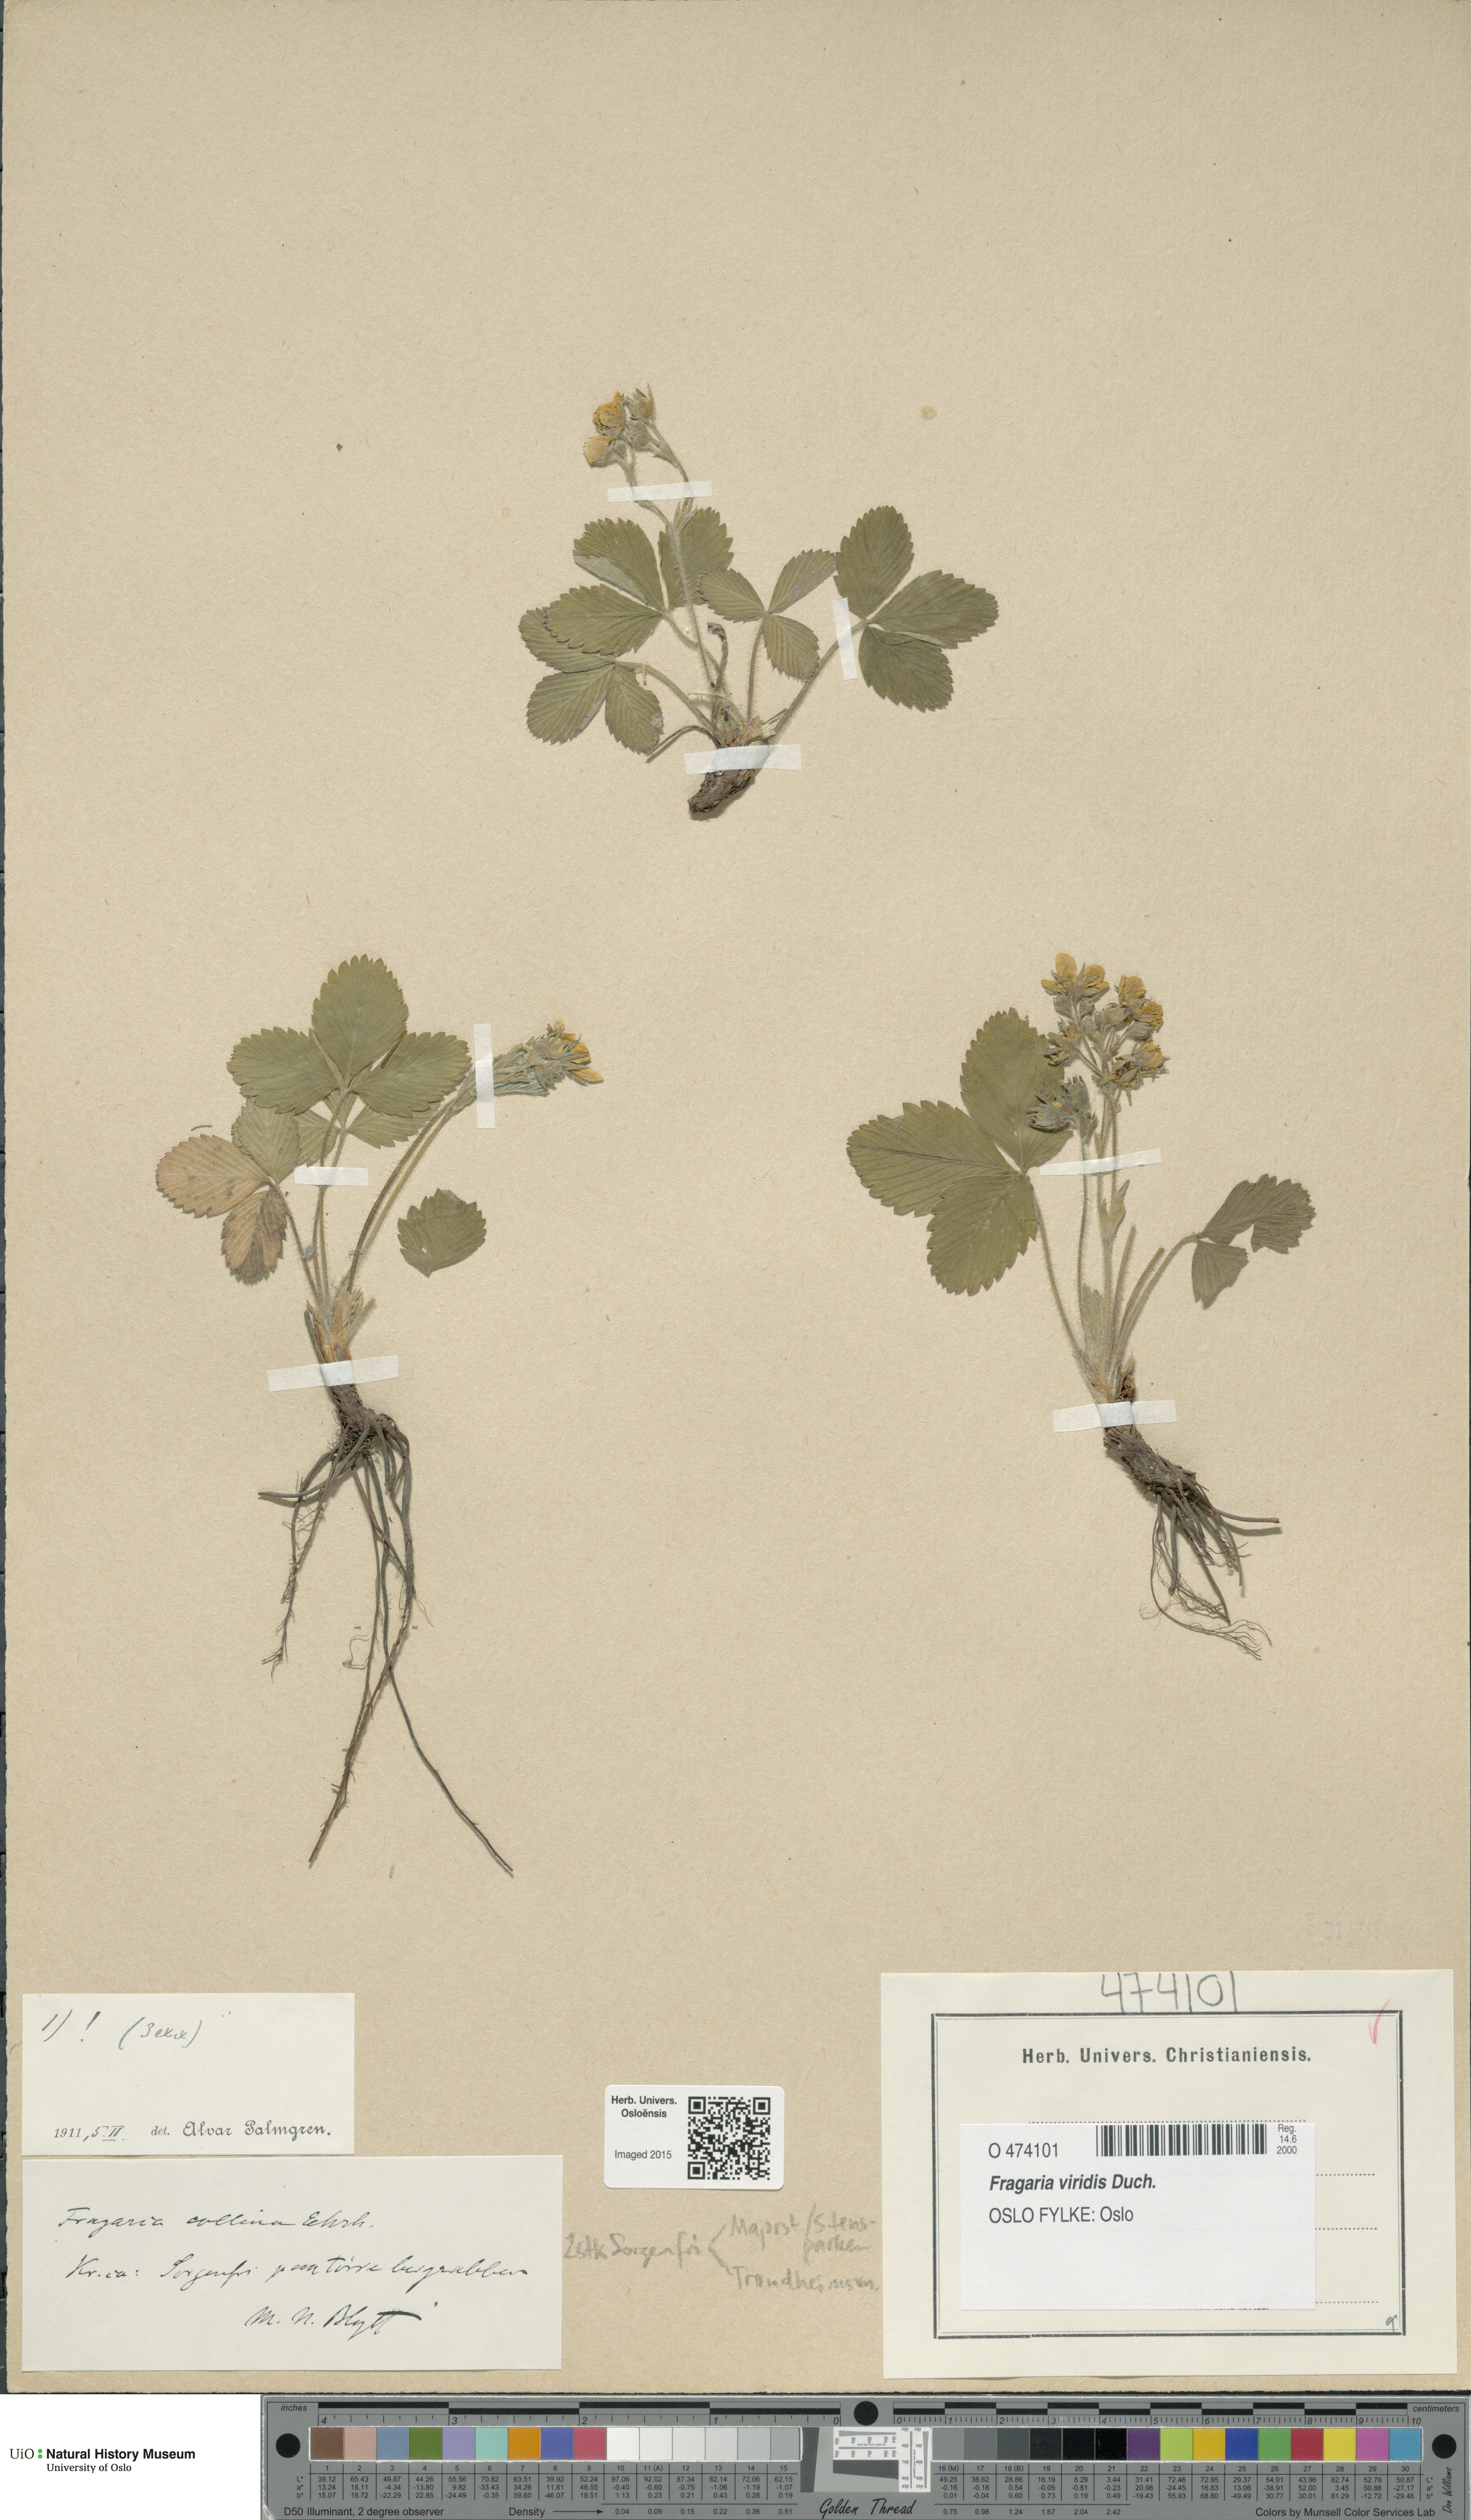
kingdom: Plantae
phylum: Tracheophyta
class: Magnoliopsida
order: Rosales
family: Rosaceae
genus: Fragaria
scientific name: Fragaria viridis
